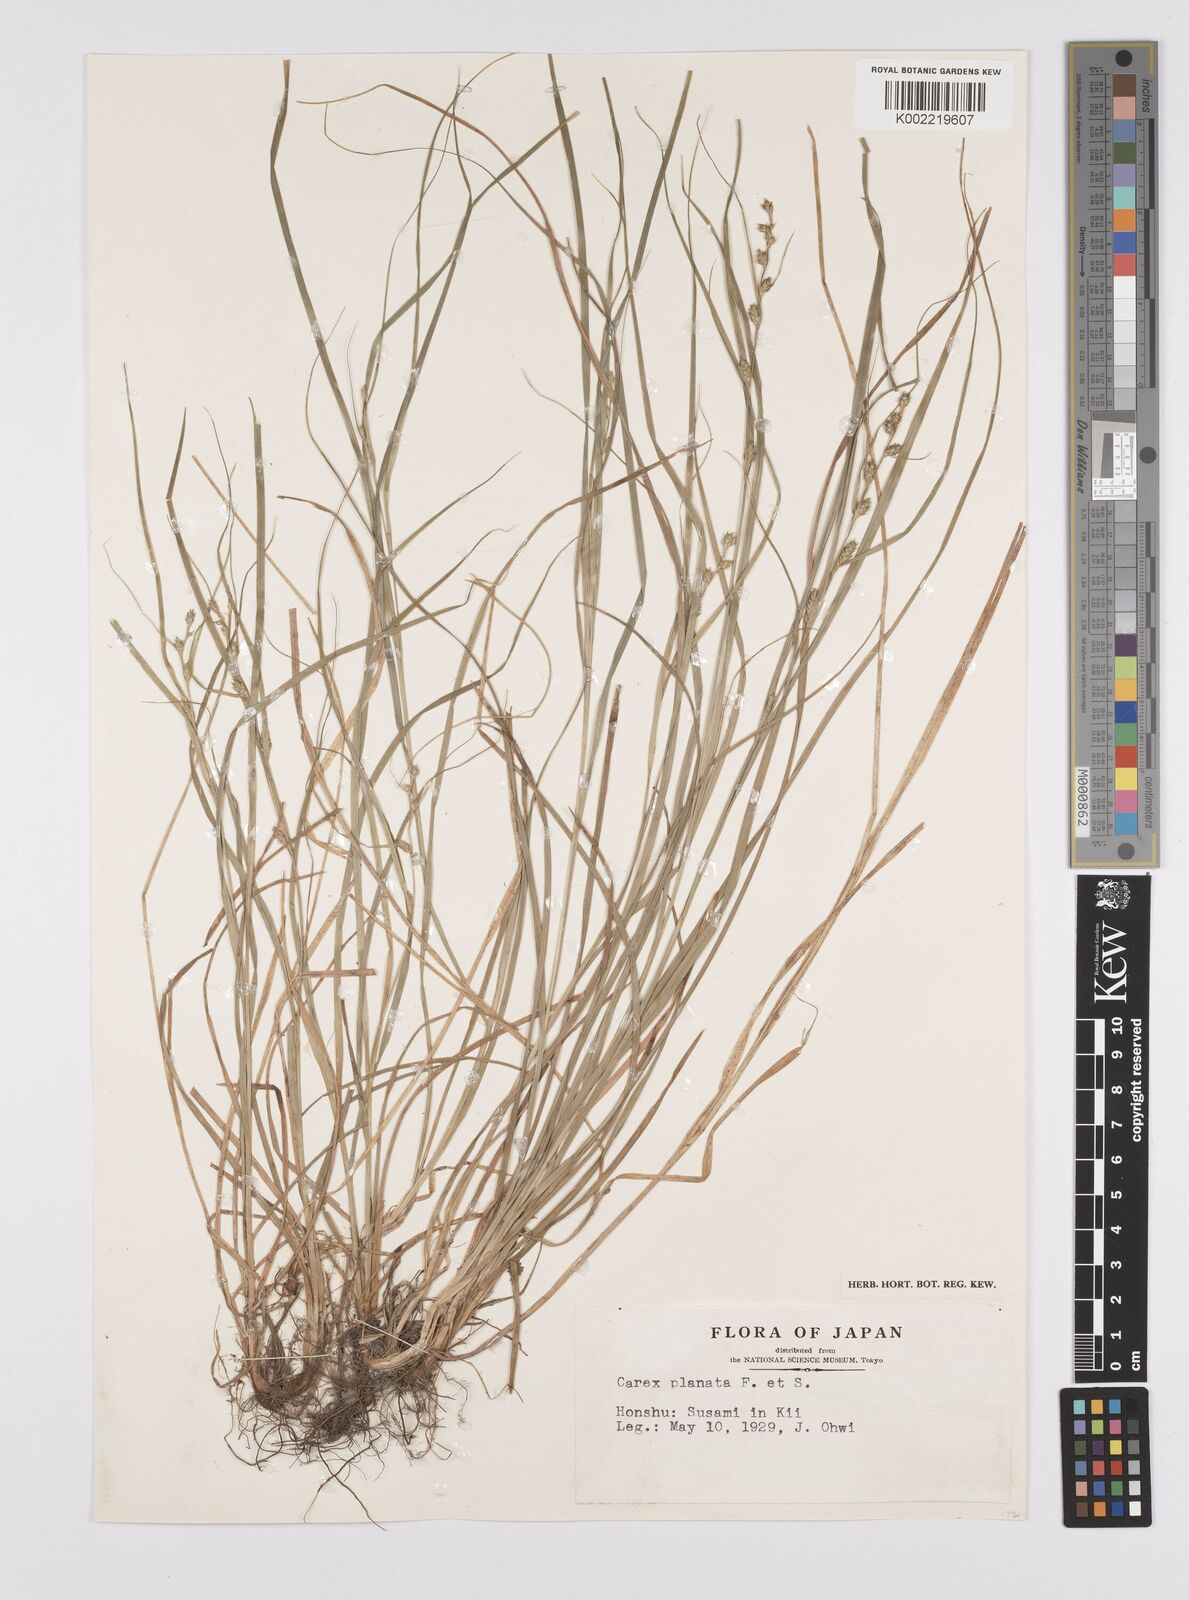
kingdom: Plantae
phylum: Tracheophyta
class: Liliopsida
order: Poales
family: Cyperaceae
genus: Carex
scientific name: Carex planata
